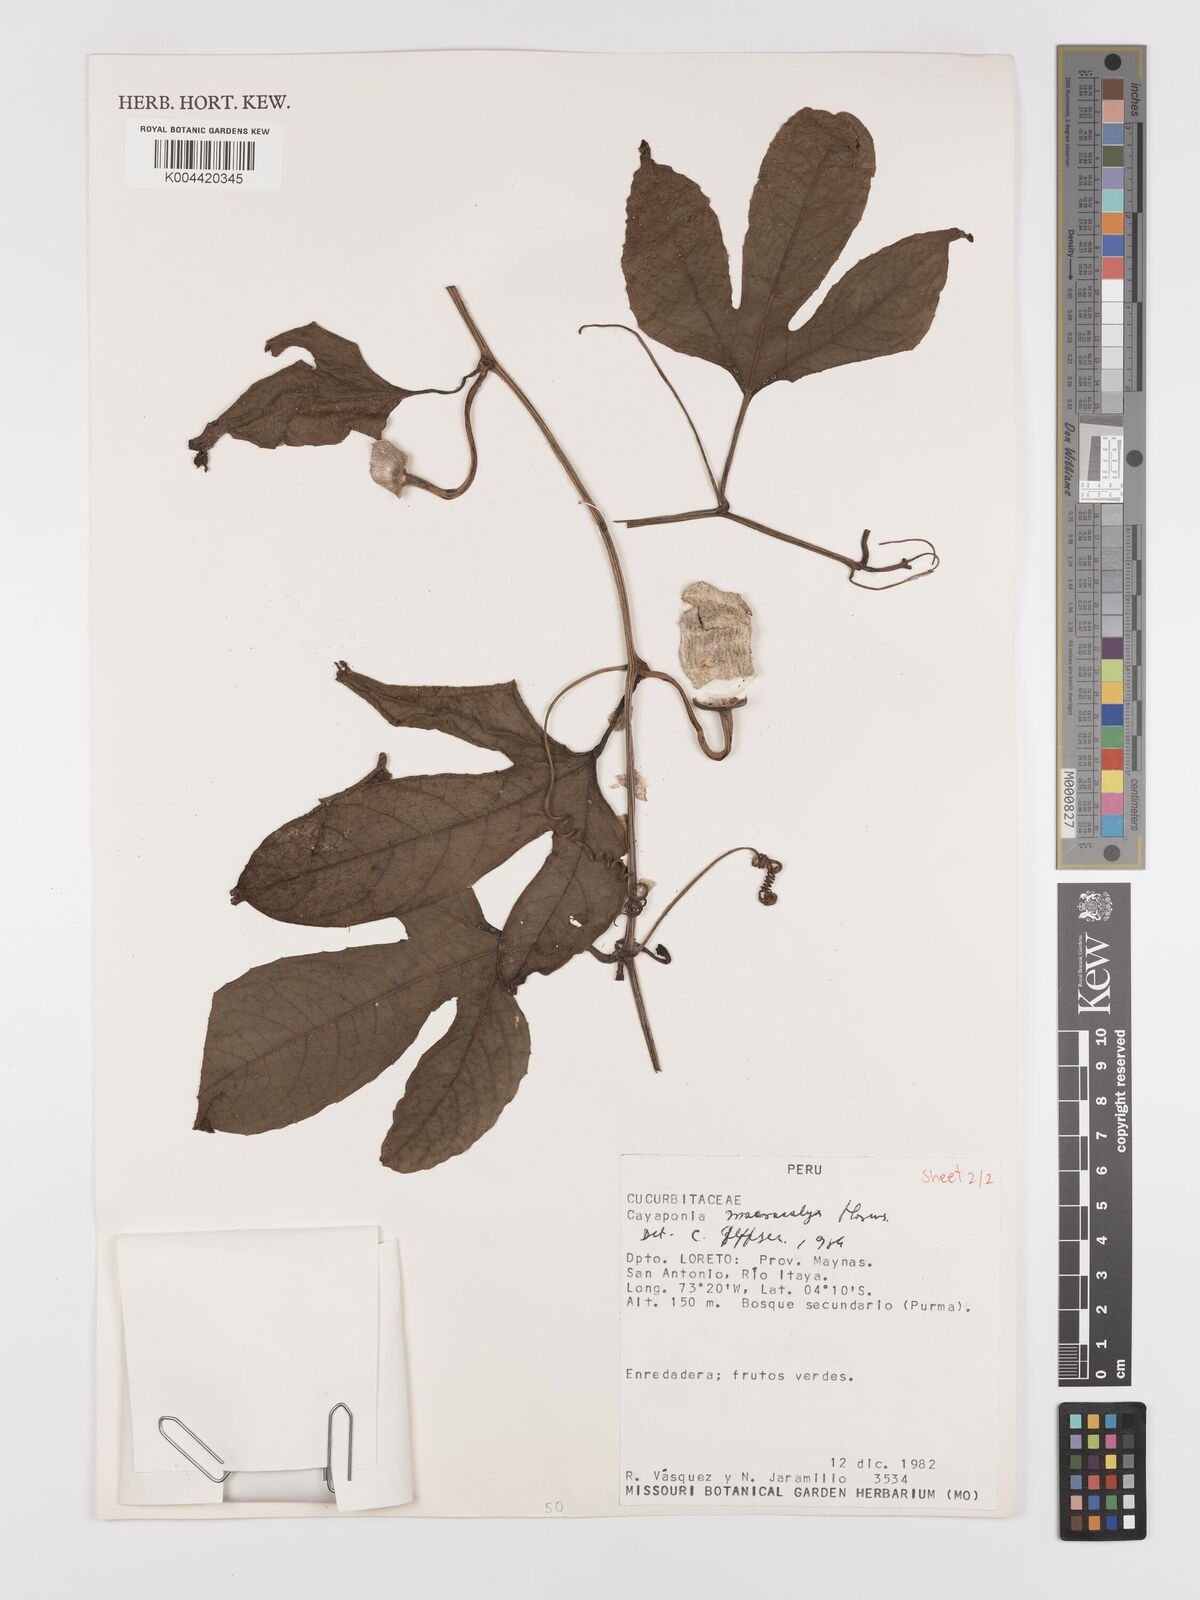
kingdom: Plantae
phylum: Tracheophyta
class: Magnoliopsida
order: Cucurbitales
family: Cucurbitaceae
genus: Cayaponia
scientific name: Cayaponia macrocalyx
